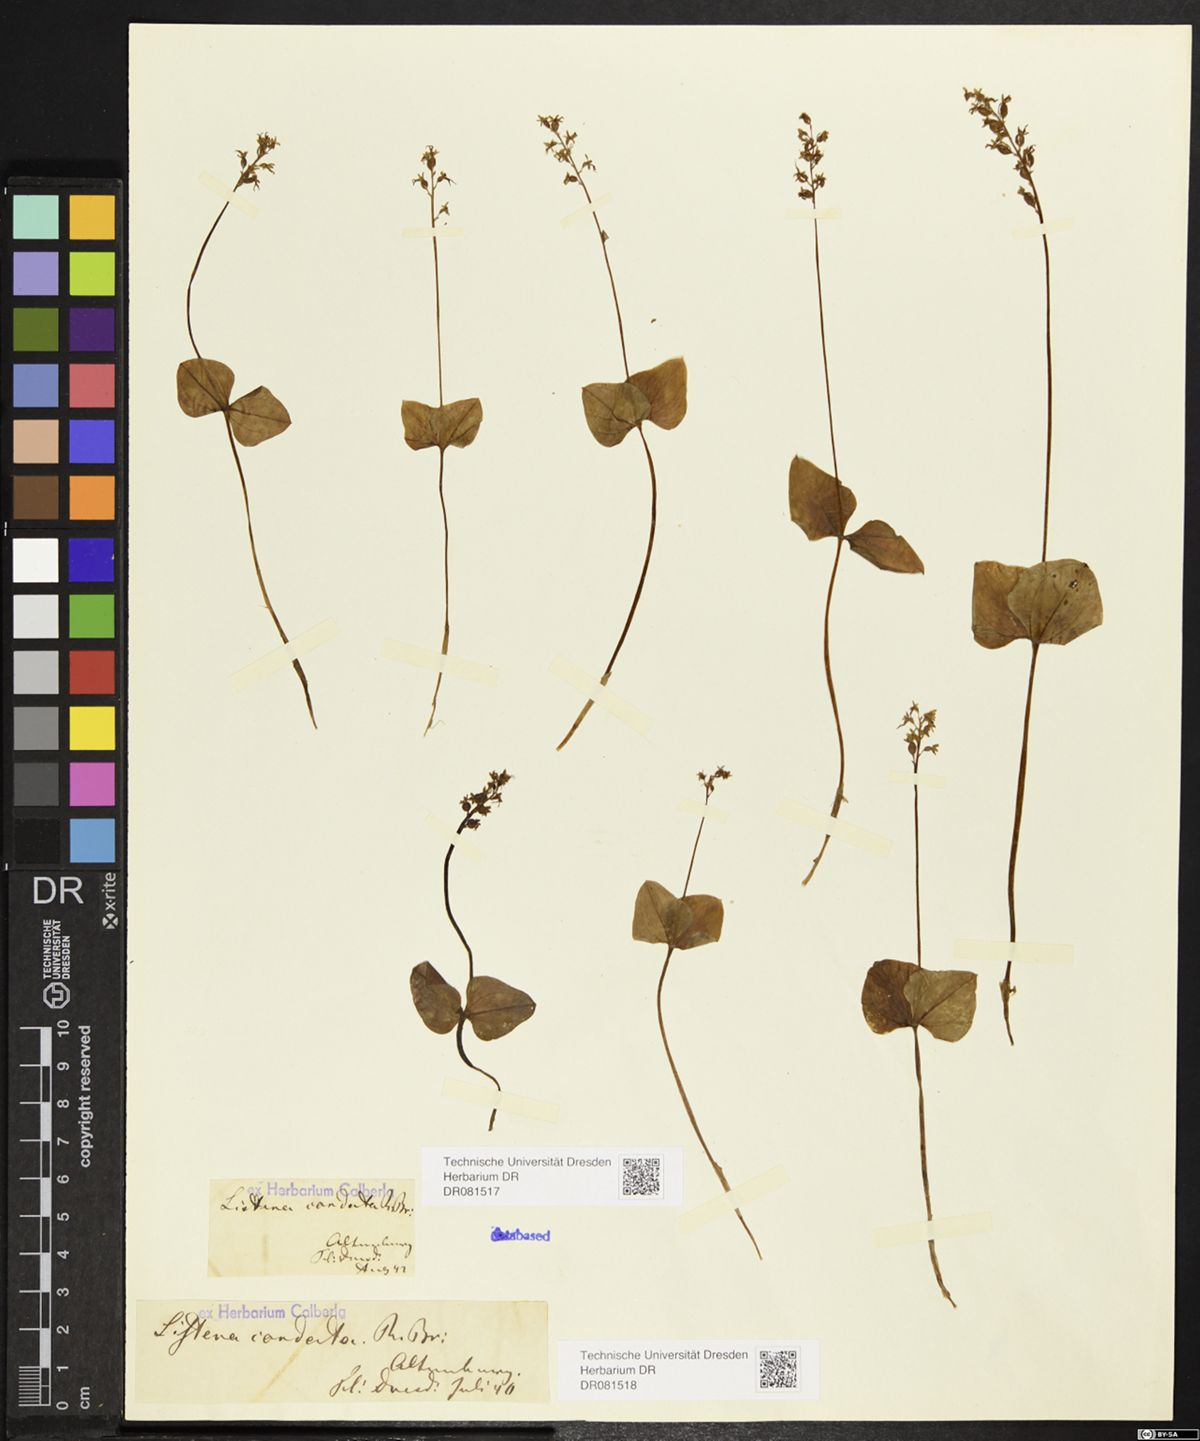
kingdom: Plantae
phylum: Tracheophyta
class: Liliopsida
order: Asparagales
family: Orchidaceae
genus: Neottia
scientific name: Neottia cordata
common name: Lesser twayblade
